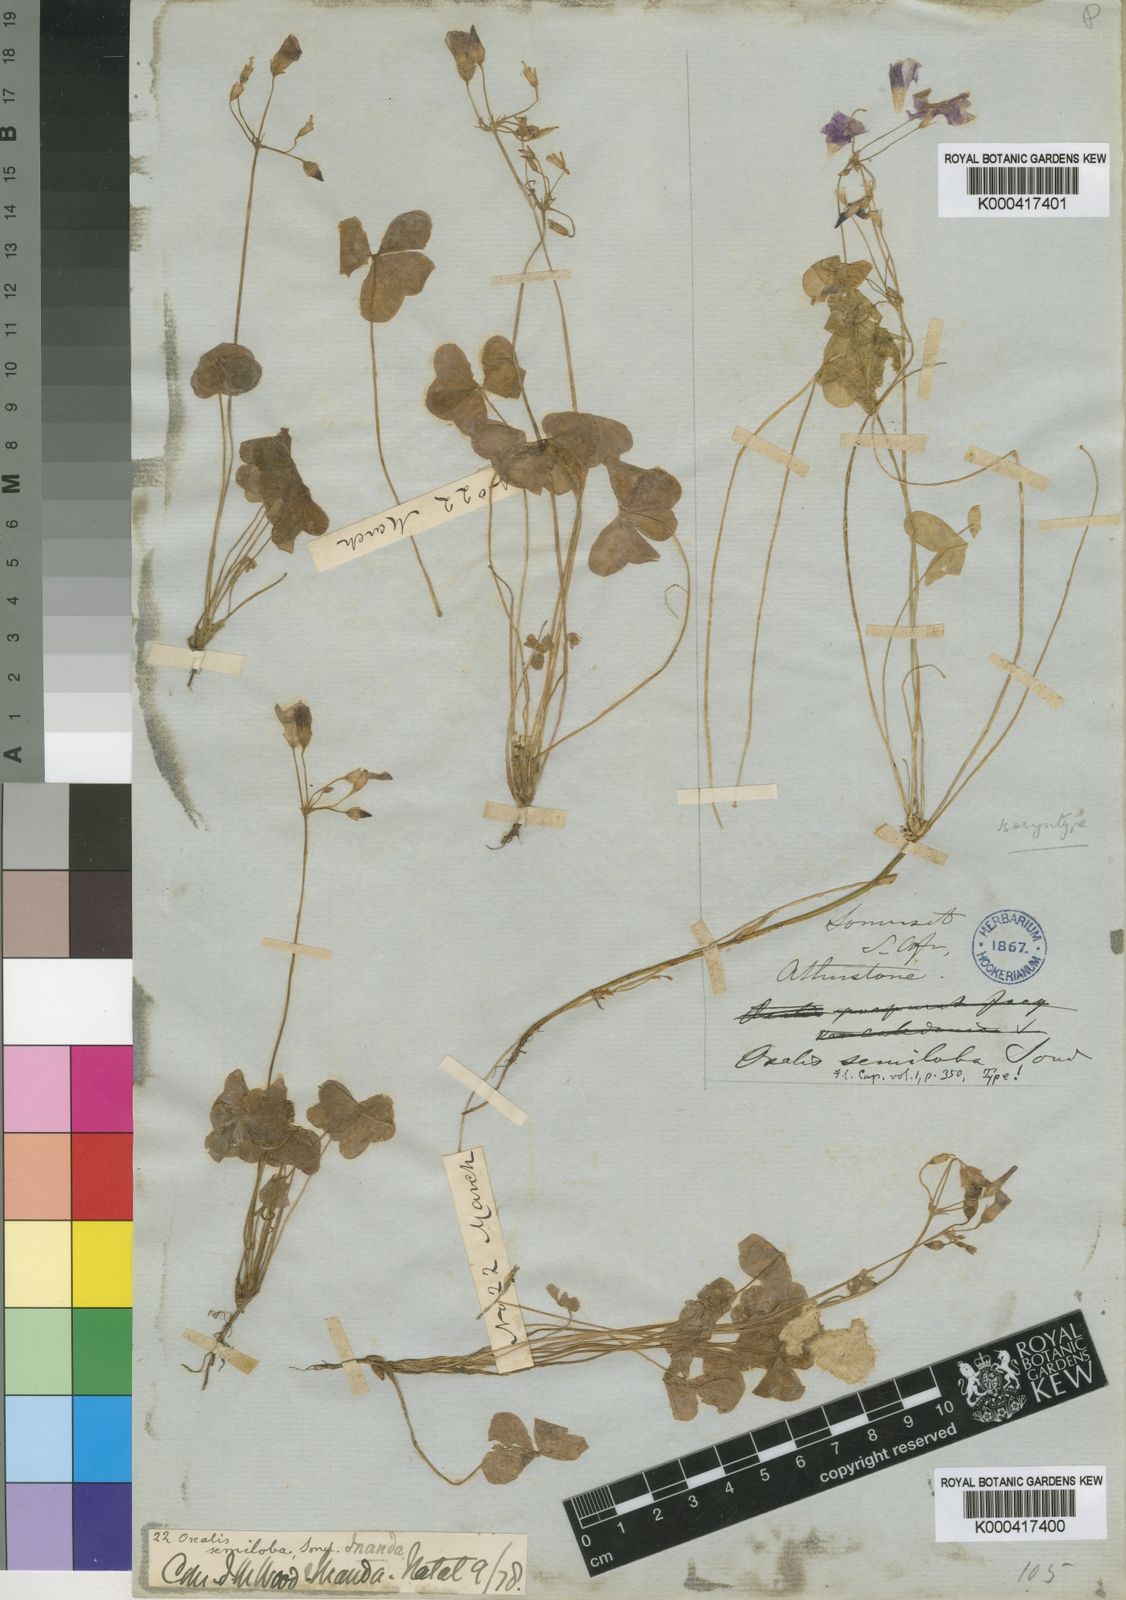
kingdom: Plantae
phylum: Tracheophyta
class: Magnoliopsida
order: Oxalidales
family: Oxalidaceae
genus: Oxalis
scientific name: Oxalis semiloba
